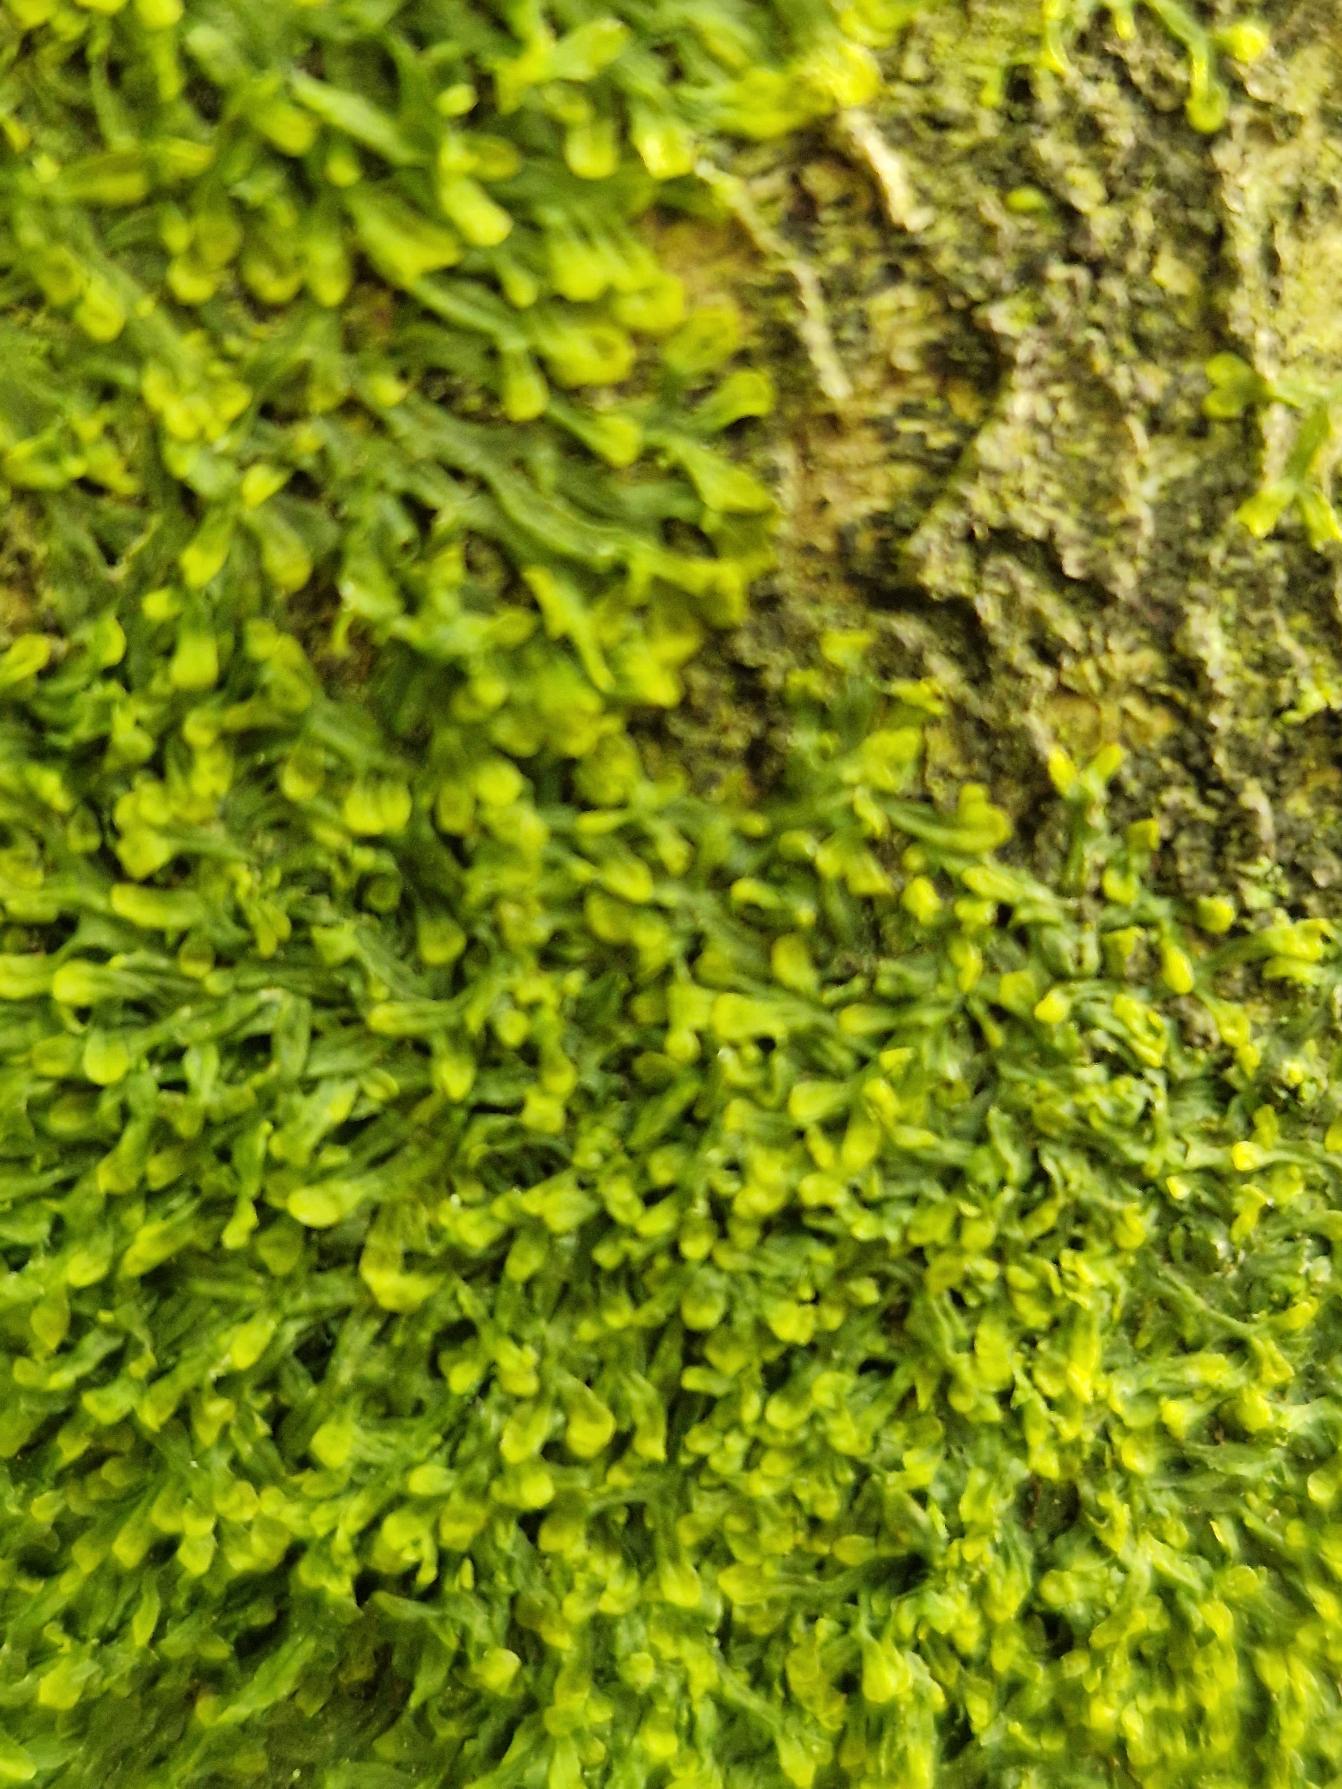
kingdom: Plantae
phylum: Marchantiophyta
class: Jungermanniopsida
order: Metzgeriales
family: Metzgeriaceae
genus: Metzgeria
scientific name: Metzgeria furcata
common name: Almindelig gaffelløv
